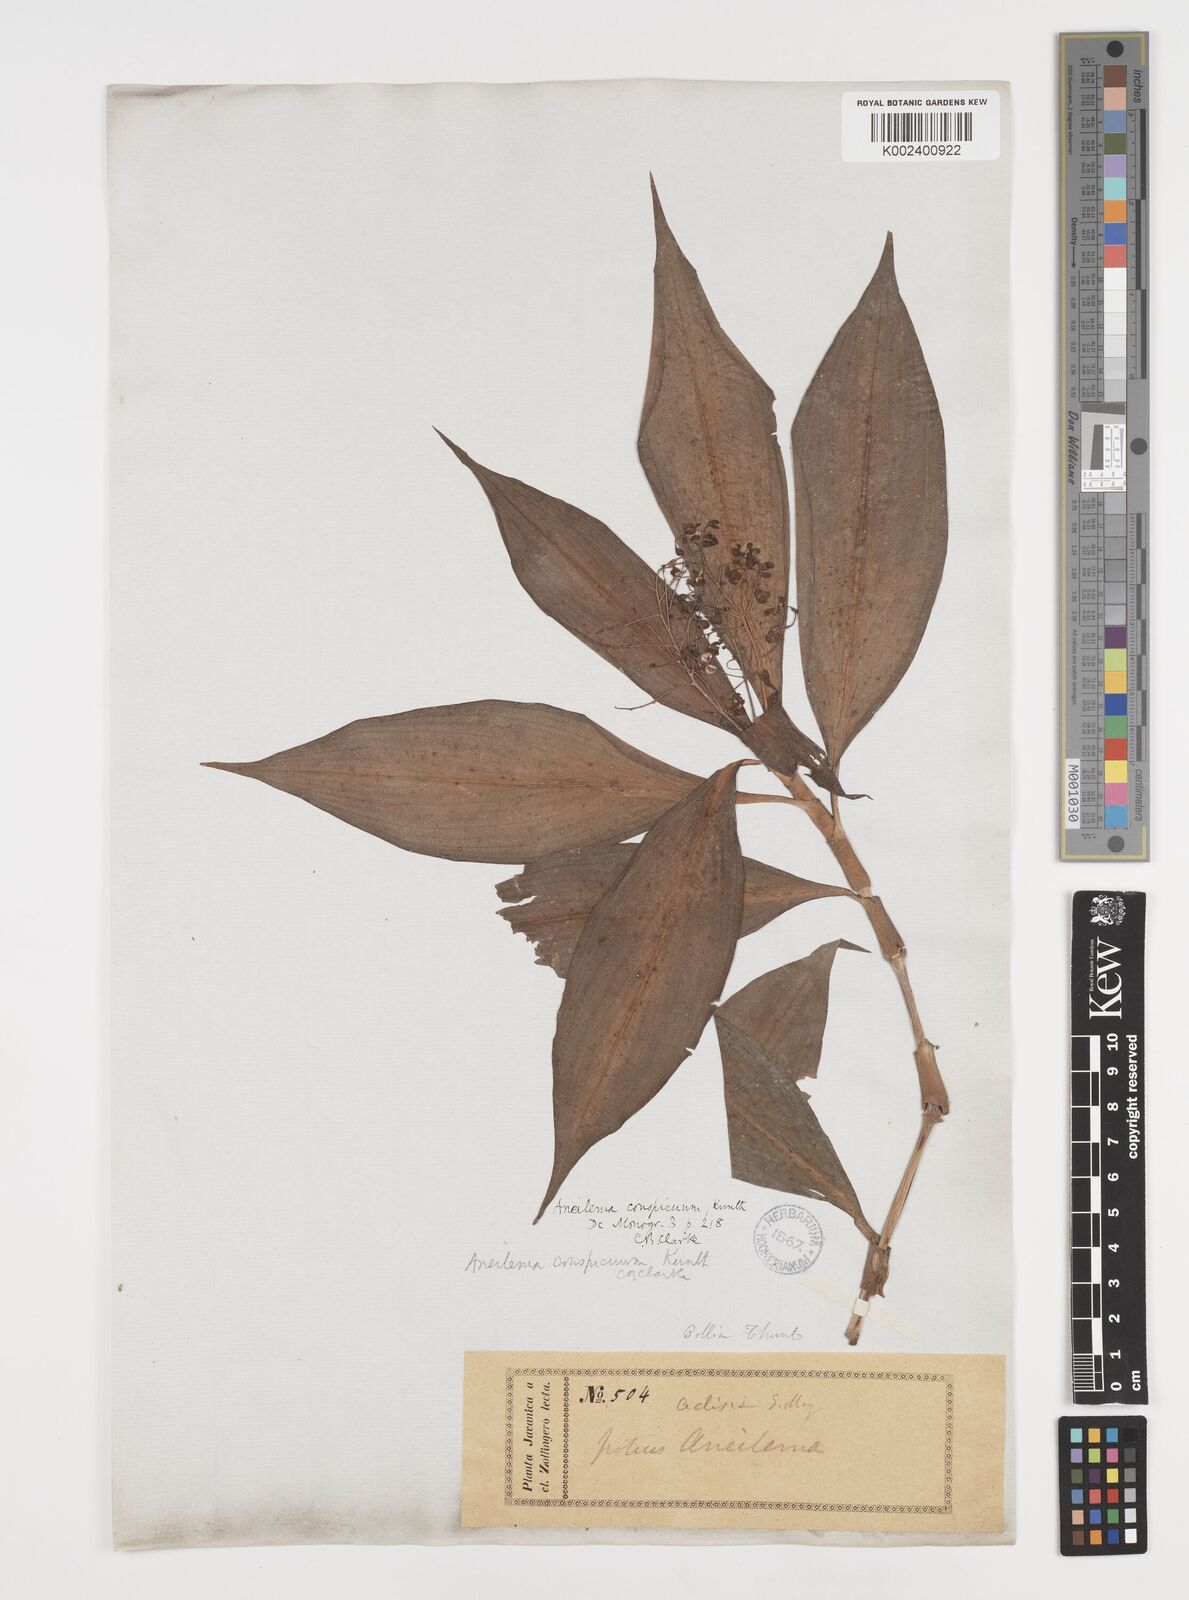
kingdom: Plantae
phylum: Tracheophyta
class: Liliopsida
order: Commelinales
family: Commelinaceae
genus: Dictyospermum
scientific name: Dictyospermum conspicuum
